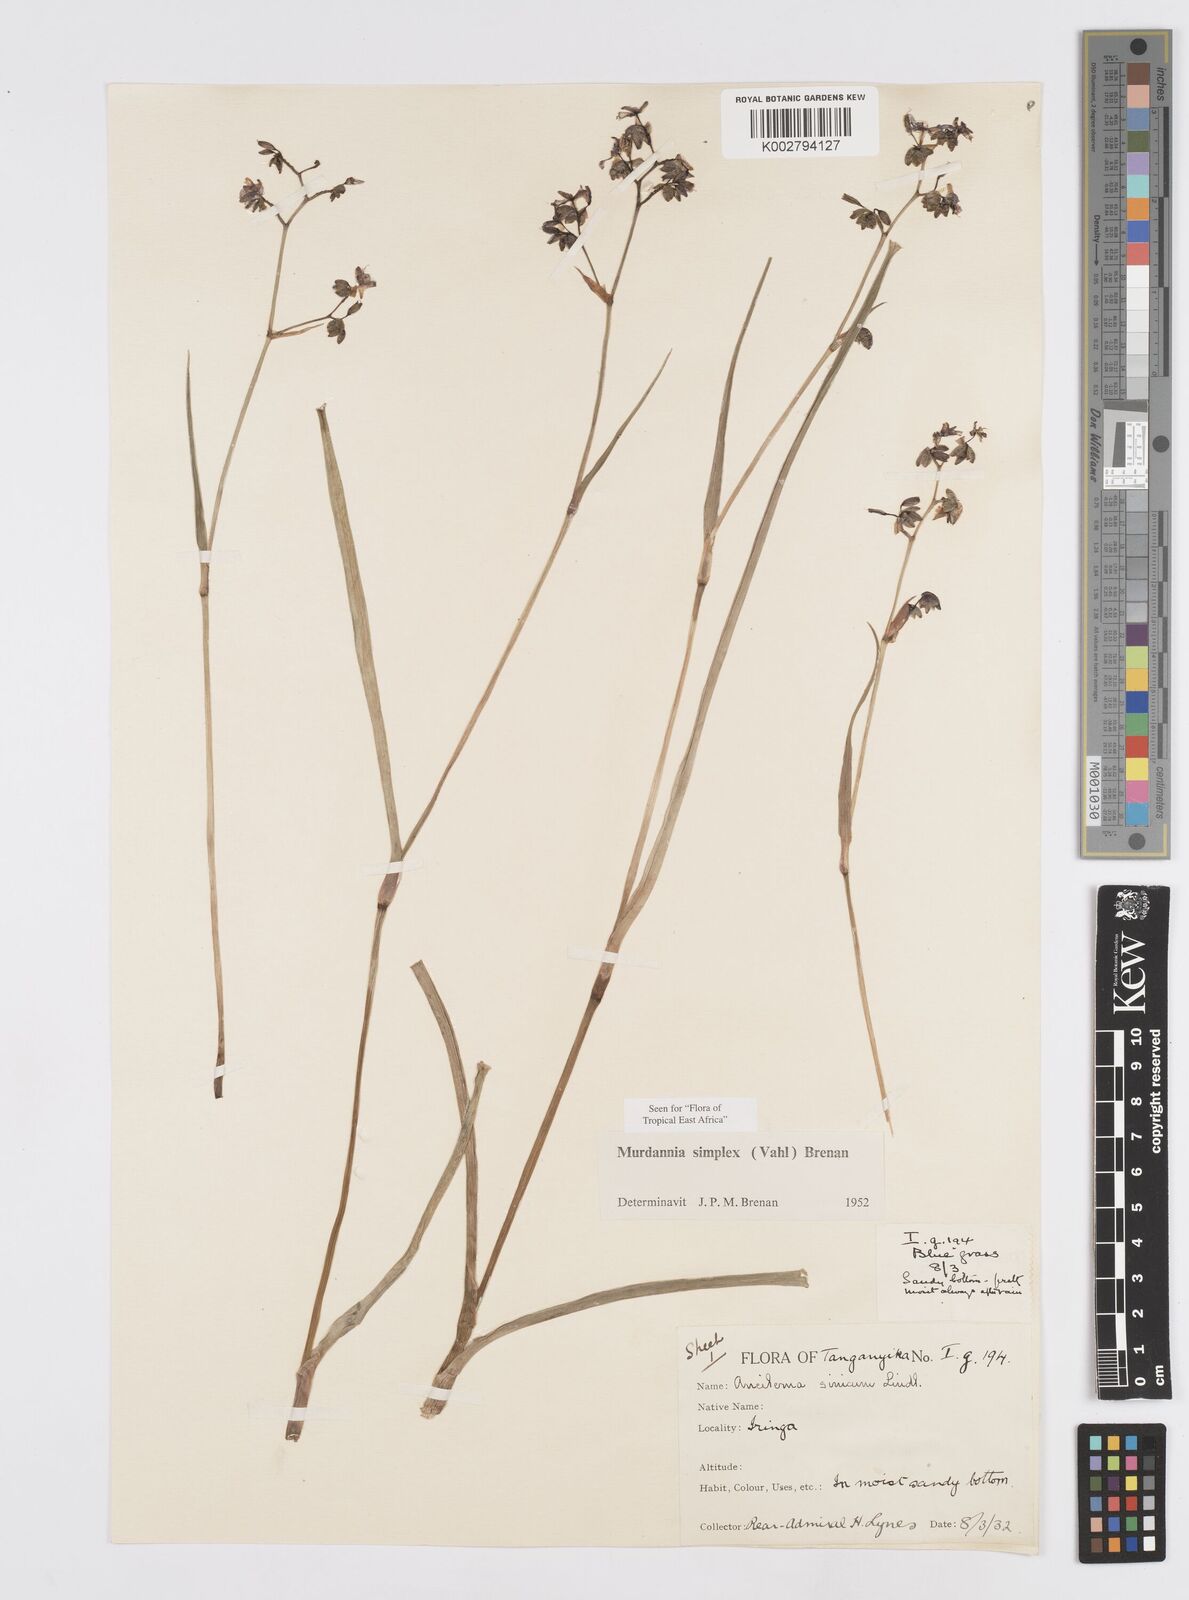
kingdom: Plantae
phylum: Tracheophyta
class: Liliopsida
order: Commelinales
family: Commelinaceae
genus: Murdannia
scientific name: Murdannia simplex
